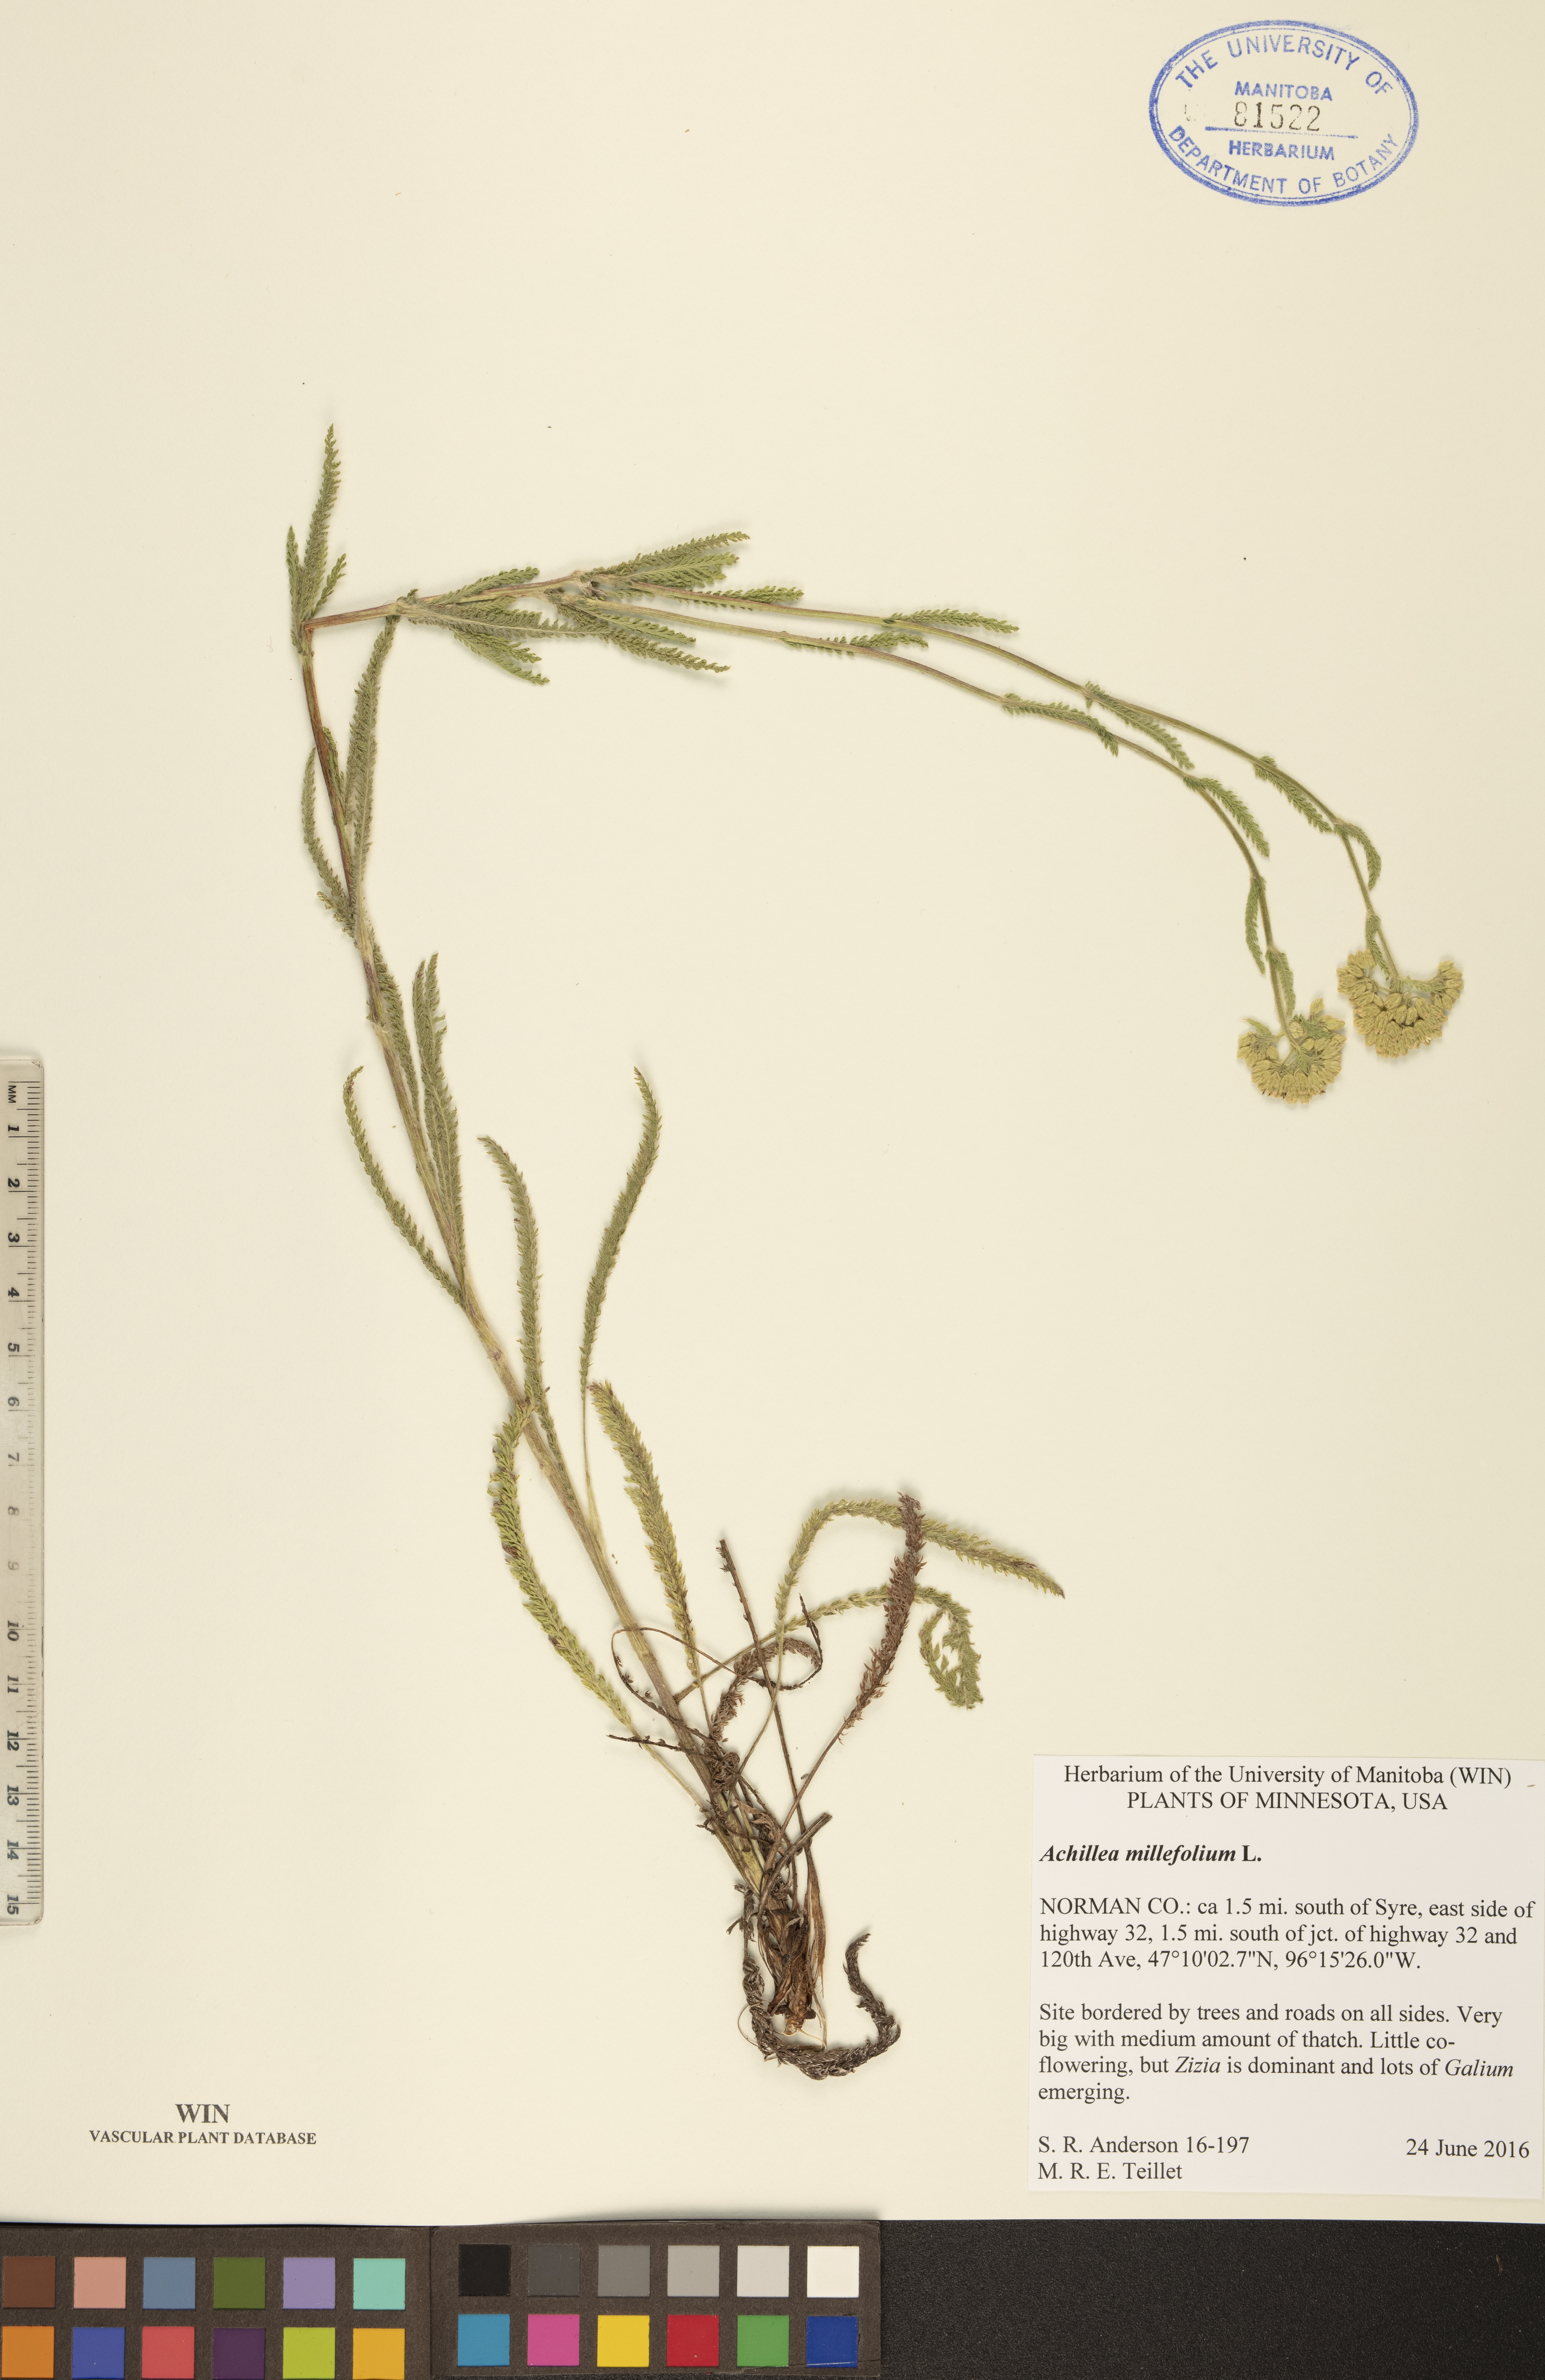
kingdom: Plantae
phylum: Tracheophyta
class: Magnoliopsida
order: Asterales
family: Asteraceae
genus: Achillea
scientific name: Achillea millefolium
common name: Yarrow
